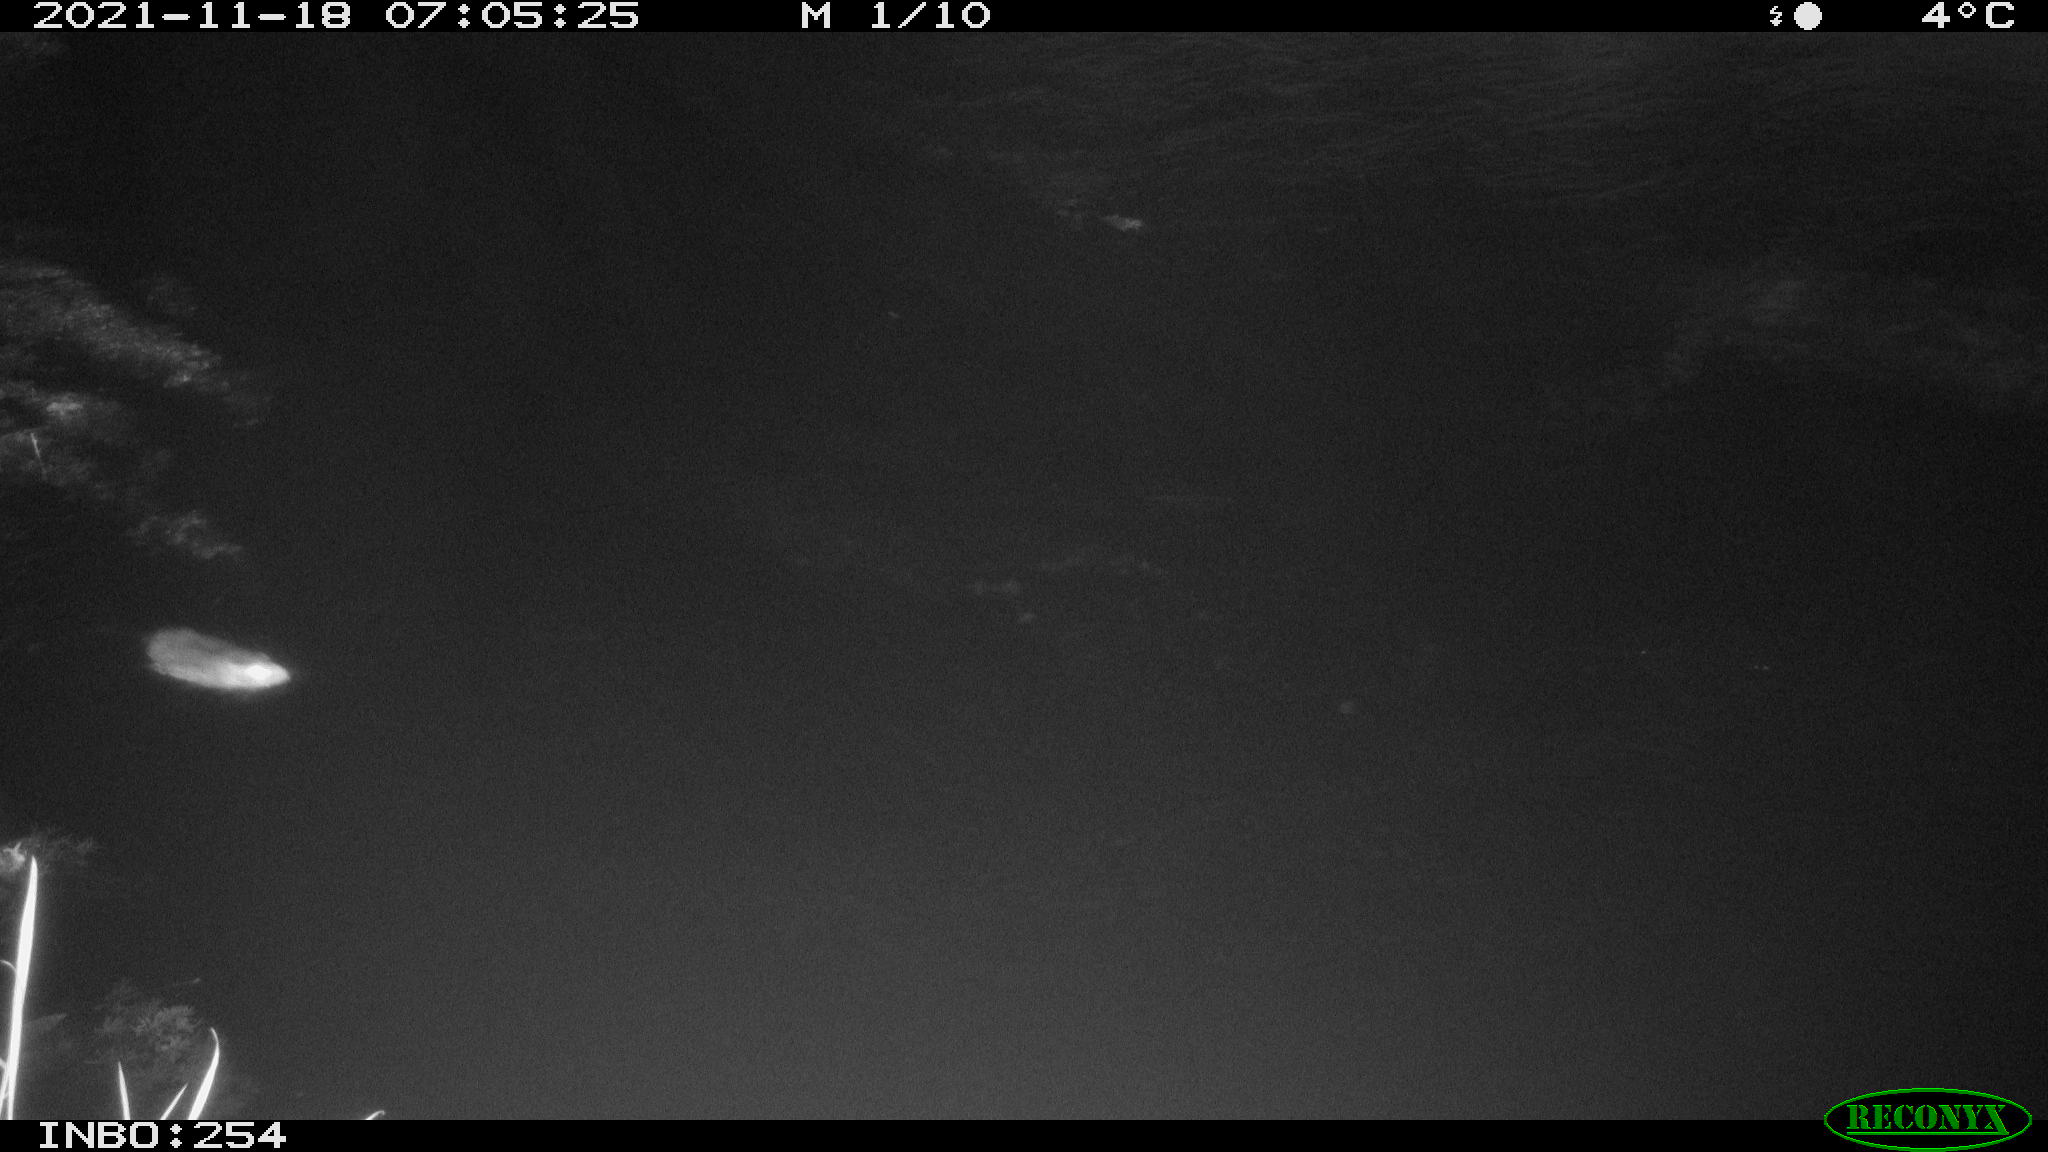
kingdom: Animalia
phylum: Chordata
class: Mammalia
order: Rodentia
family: Muridae
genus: Rattus
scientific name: Rattus norvegicus
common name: Brown rat
